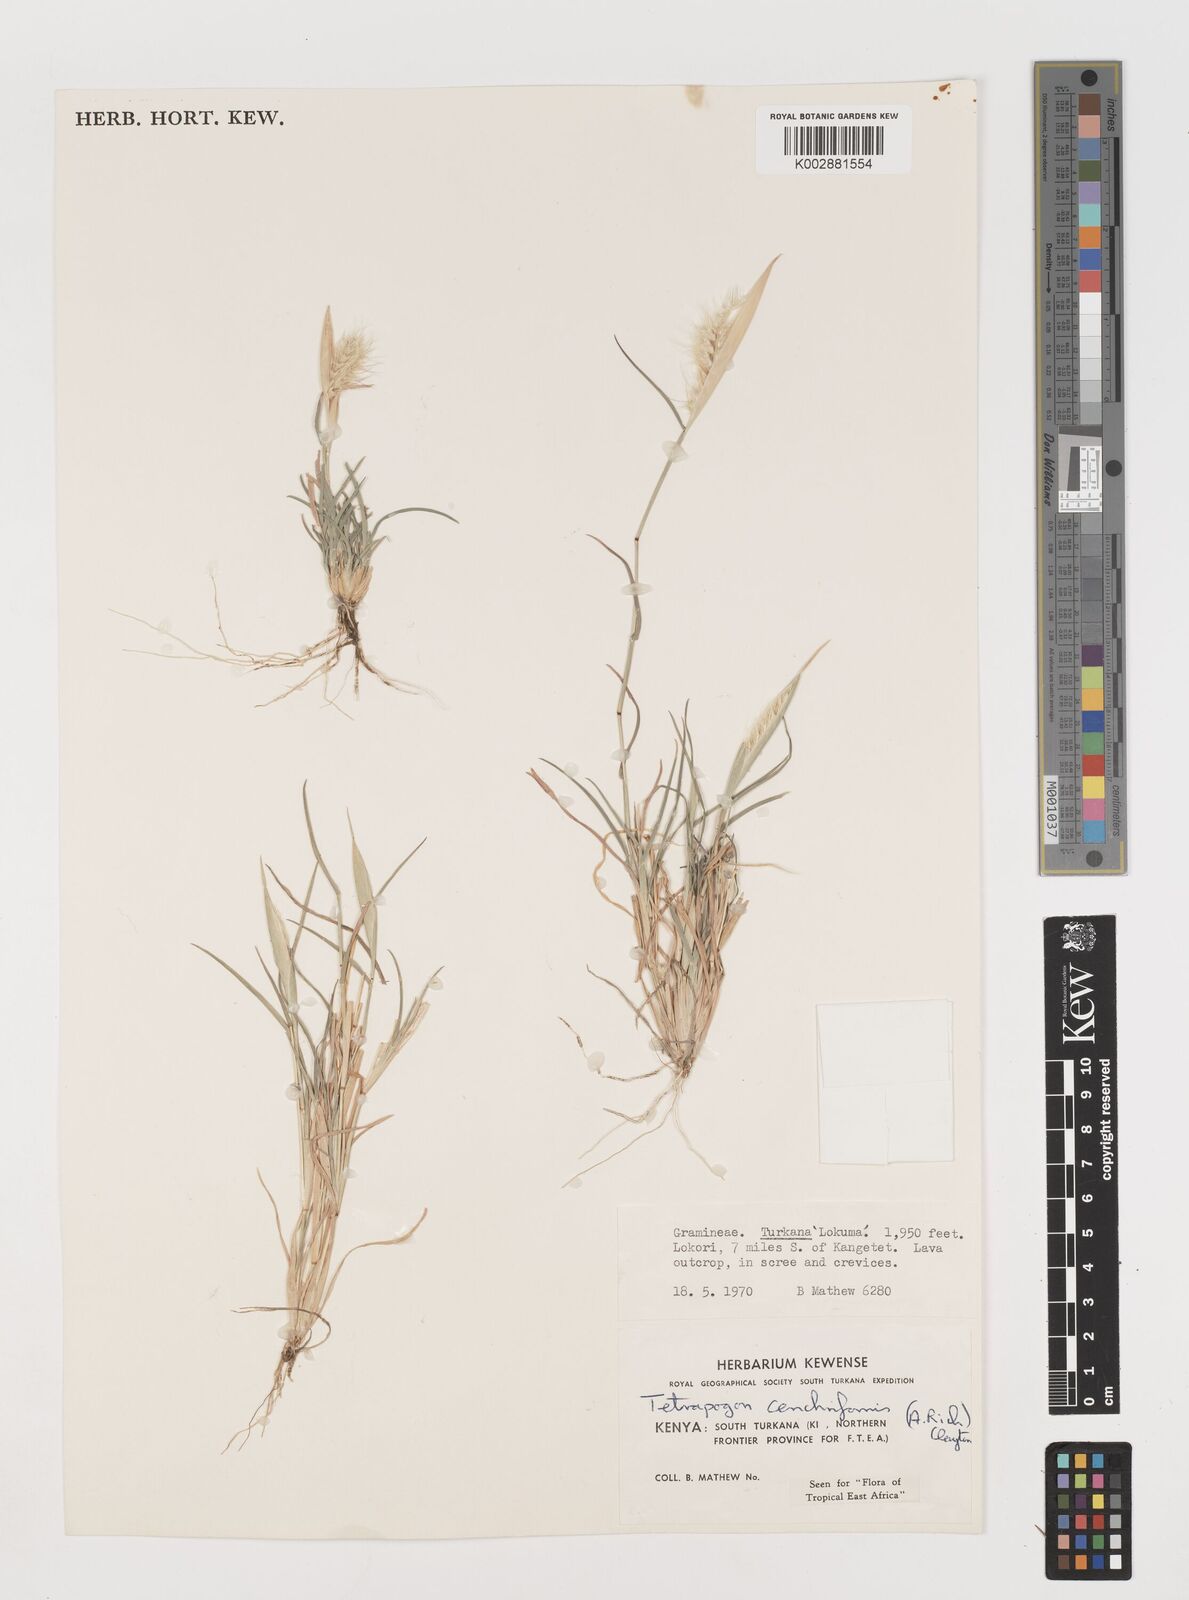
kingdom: Plantae
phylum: Tracheophyta
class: Liliopsida
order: Poales
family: Poaceae
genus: Tetrapogon
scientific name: Tetrapogon cenchriformis
